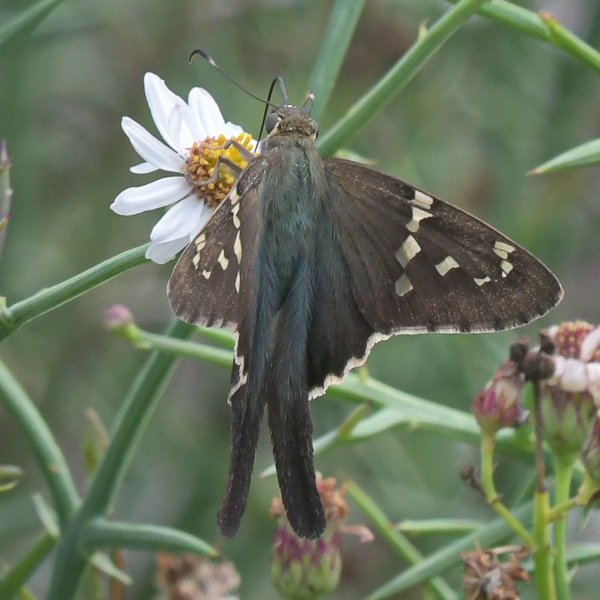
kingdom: Animalia
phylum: Arthropoda
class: Insecta
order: Lepidoptera
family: Hesperiidae
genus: Urbanus
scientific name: Urbanus proteus
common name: Long-tailed Skipper
